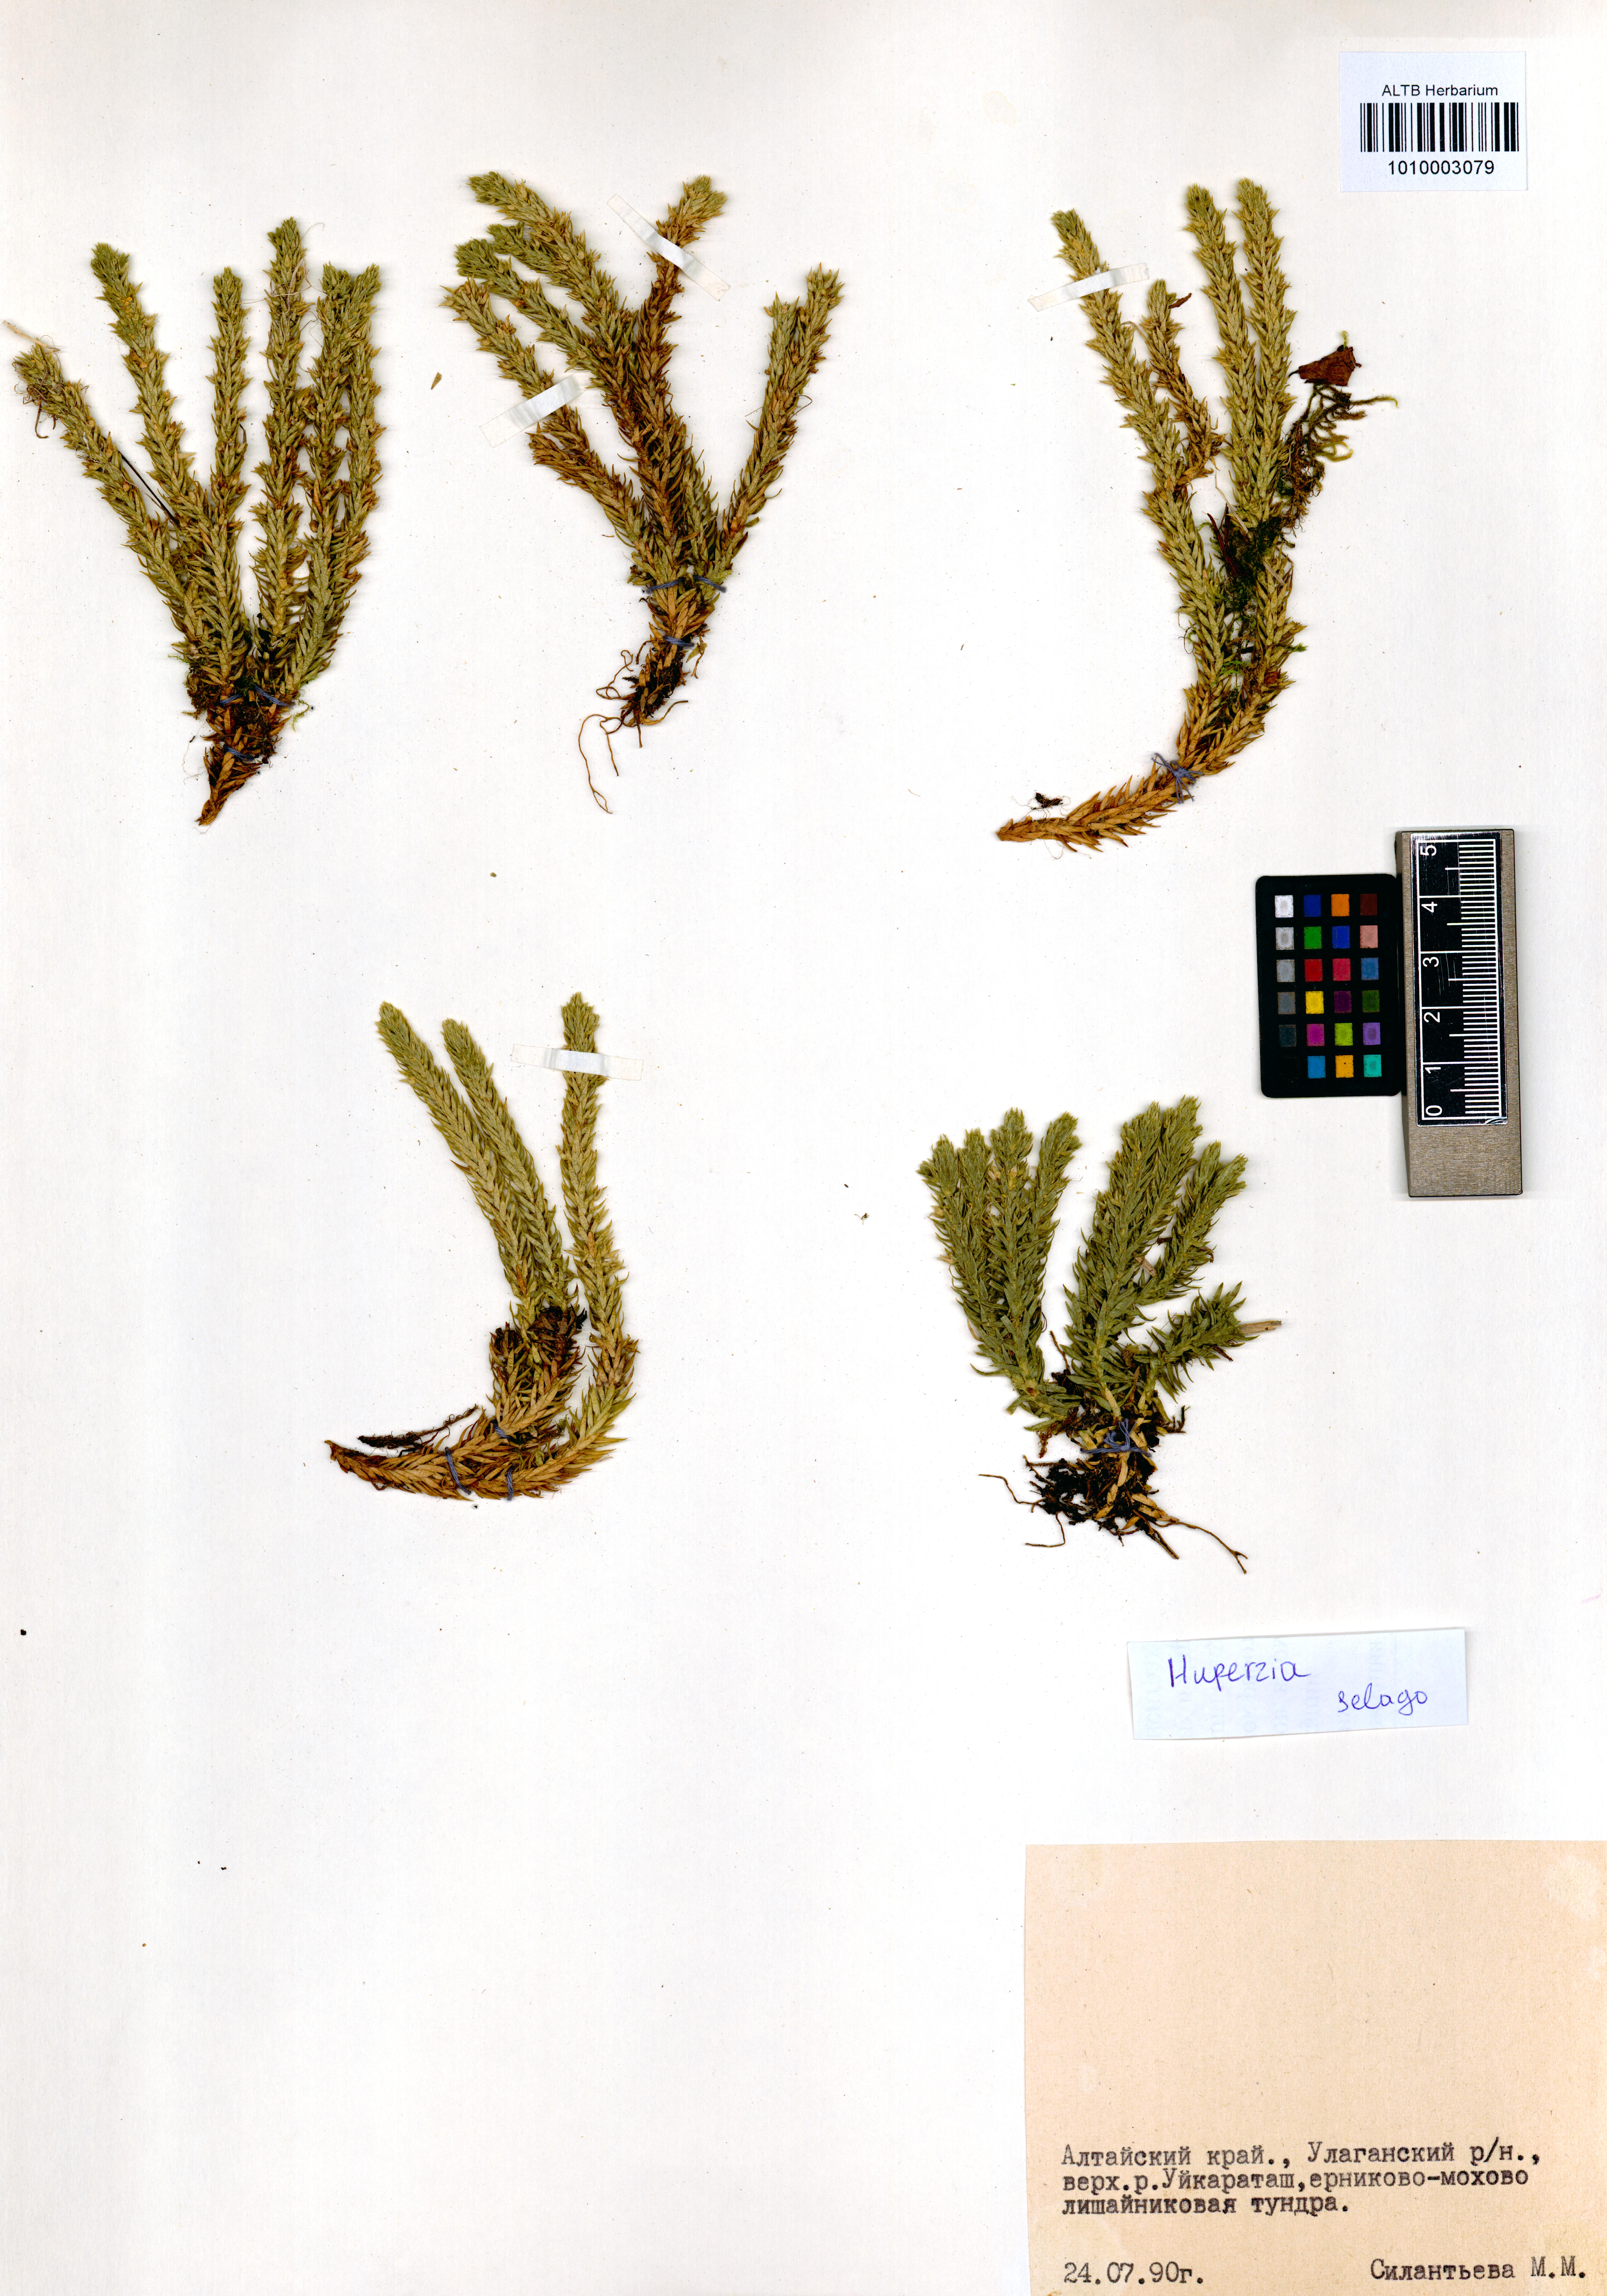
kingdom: Plantae
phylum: Tracheophyta
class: Lycopodiopsida
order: Lycopodiales
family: Lycopodiaceae
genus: Huperzia
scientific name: Huperzia selago
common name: Northern firmoss
